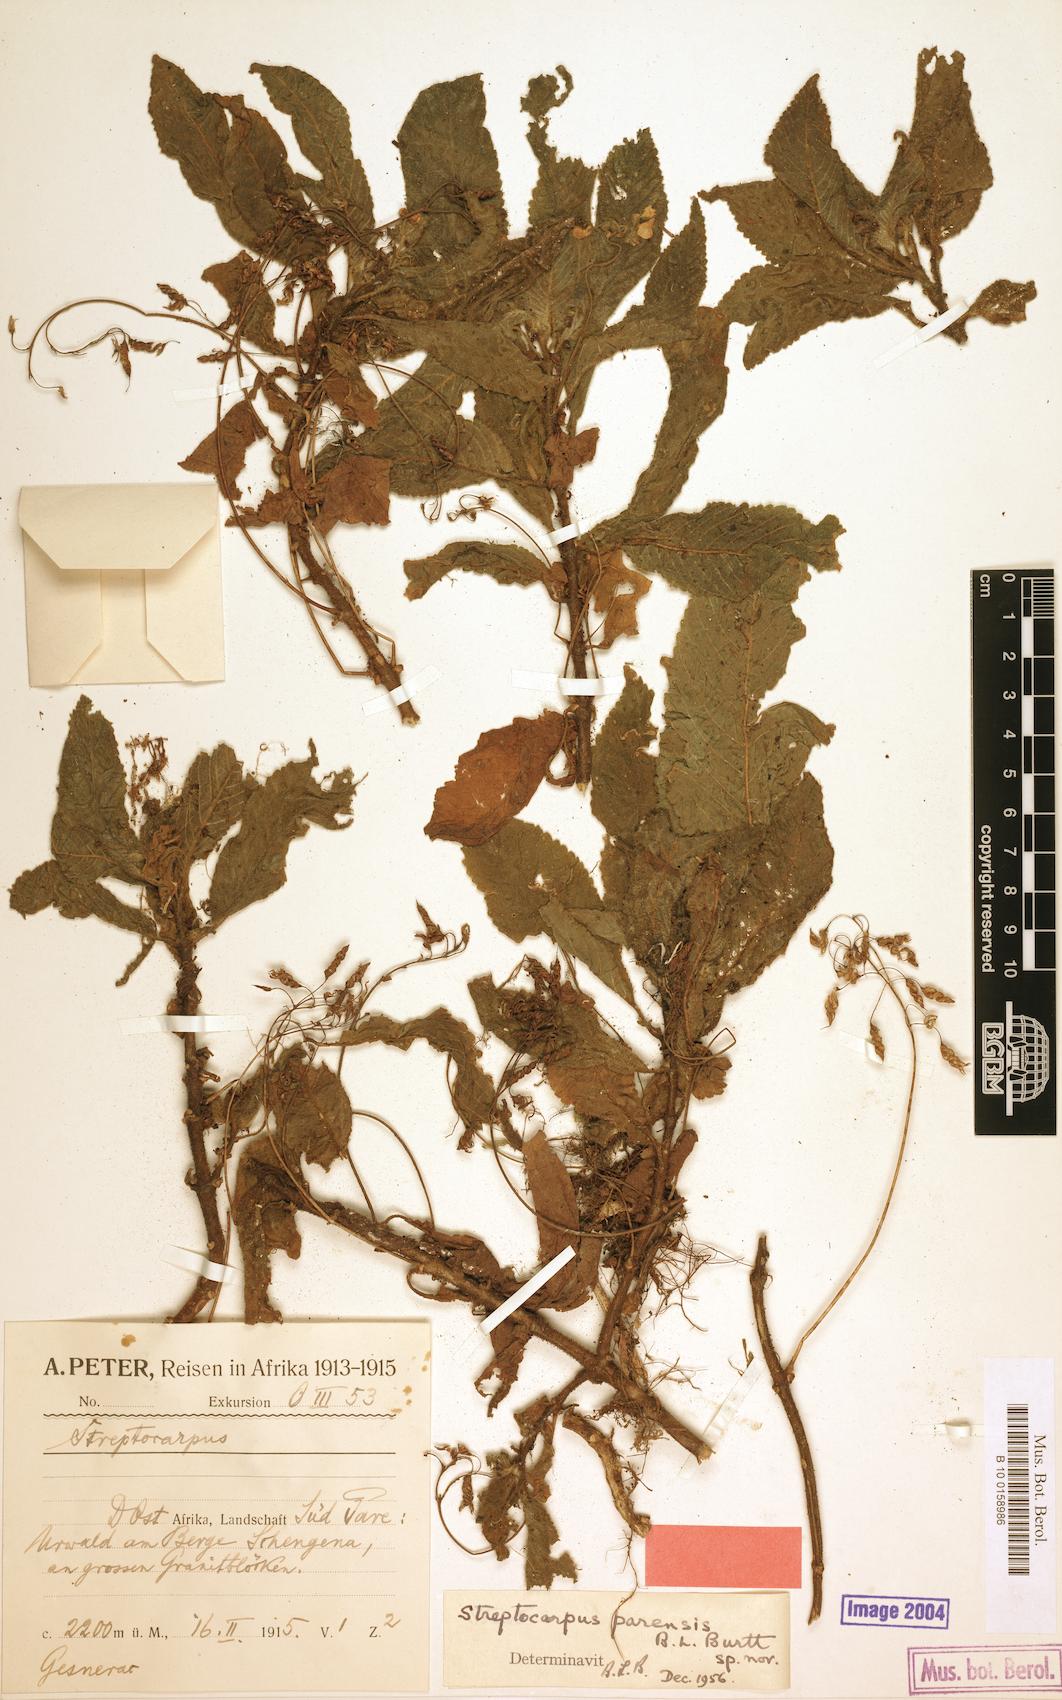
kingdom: Plantae
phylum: Tracheophyta
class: Magnoliopsida
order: Lamiales
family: Gesneriaceae
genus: Streptocarpus
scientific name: Streptocarpus parensis
